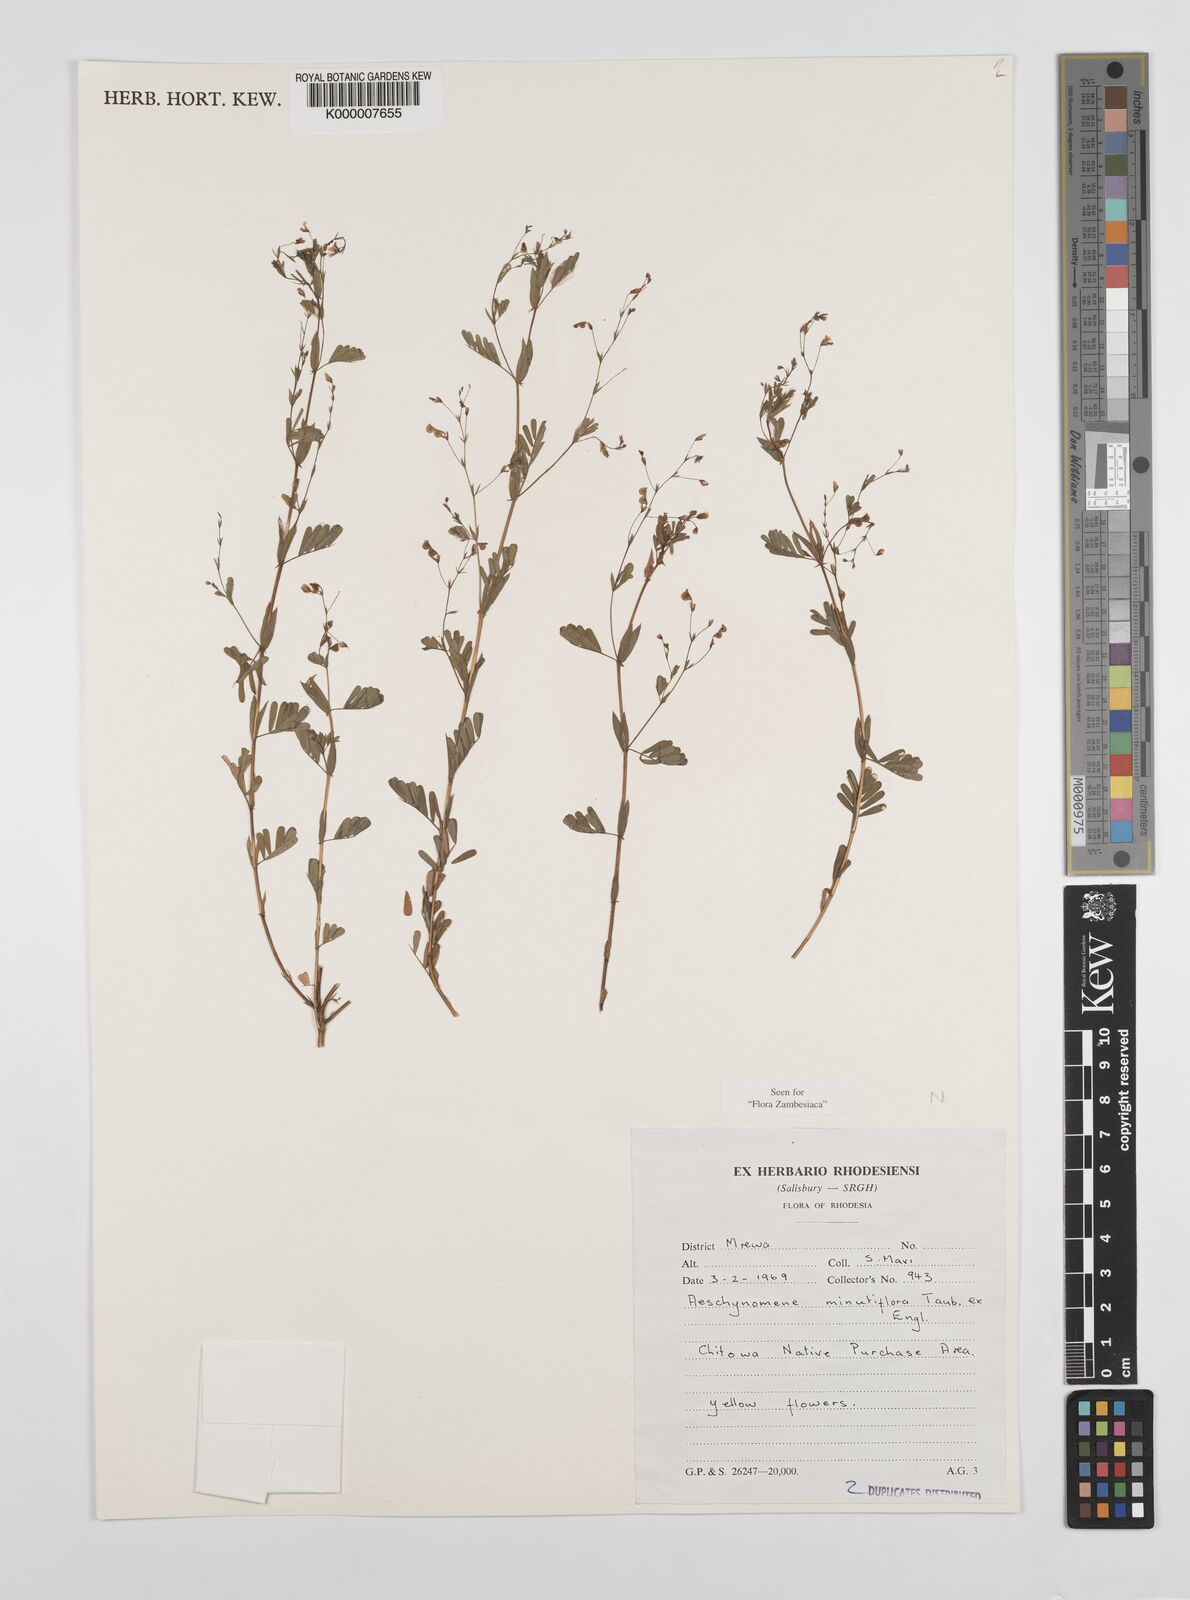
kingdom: Plantae
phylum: Tracheophyta
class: Magnoliopsida
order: Fabales
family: Fabaceae
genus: Aeschynomene
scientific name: Aeschynomene minutiflora
